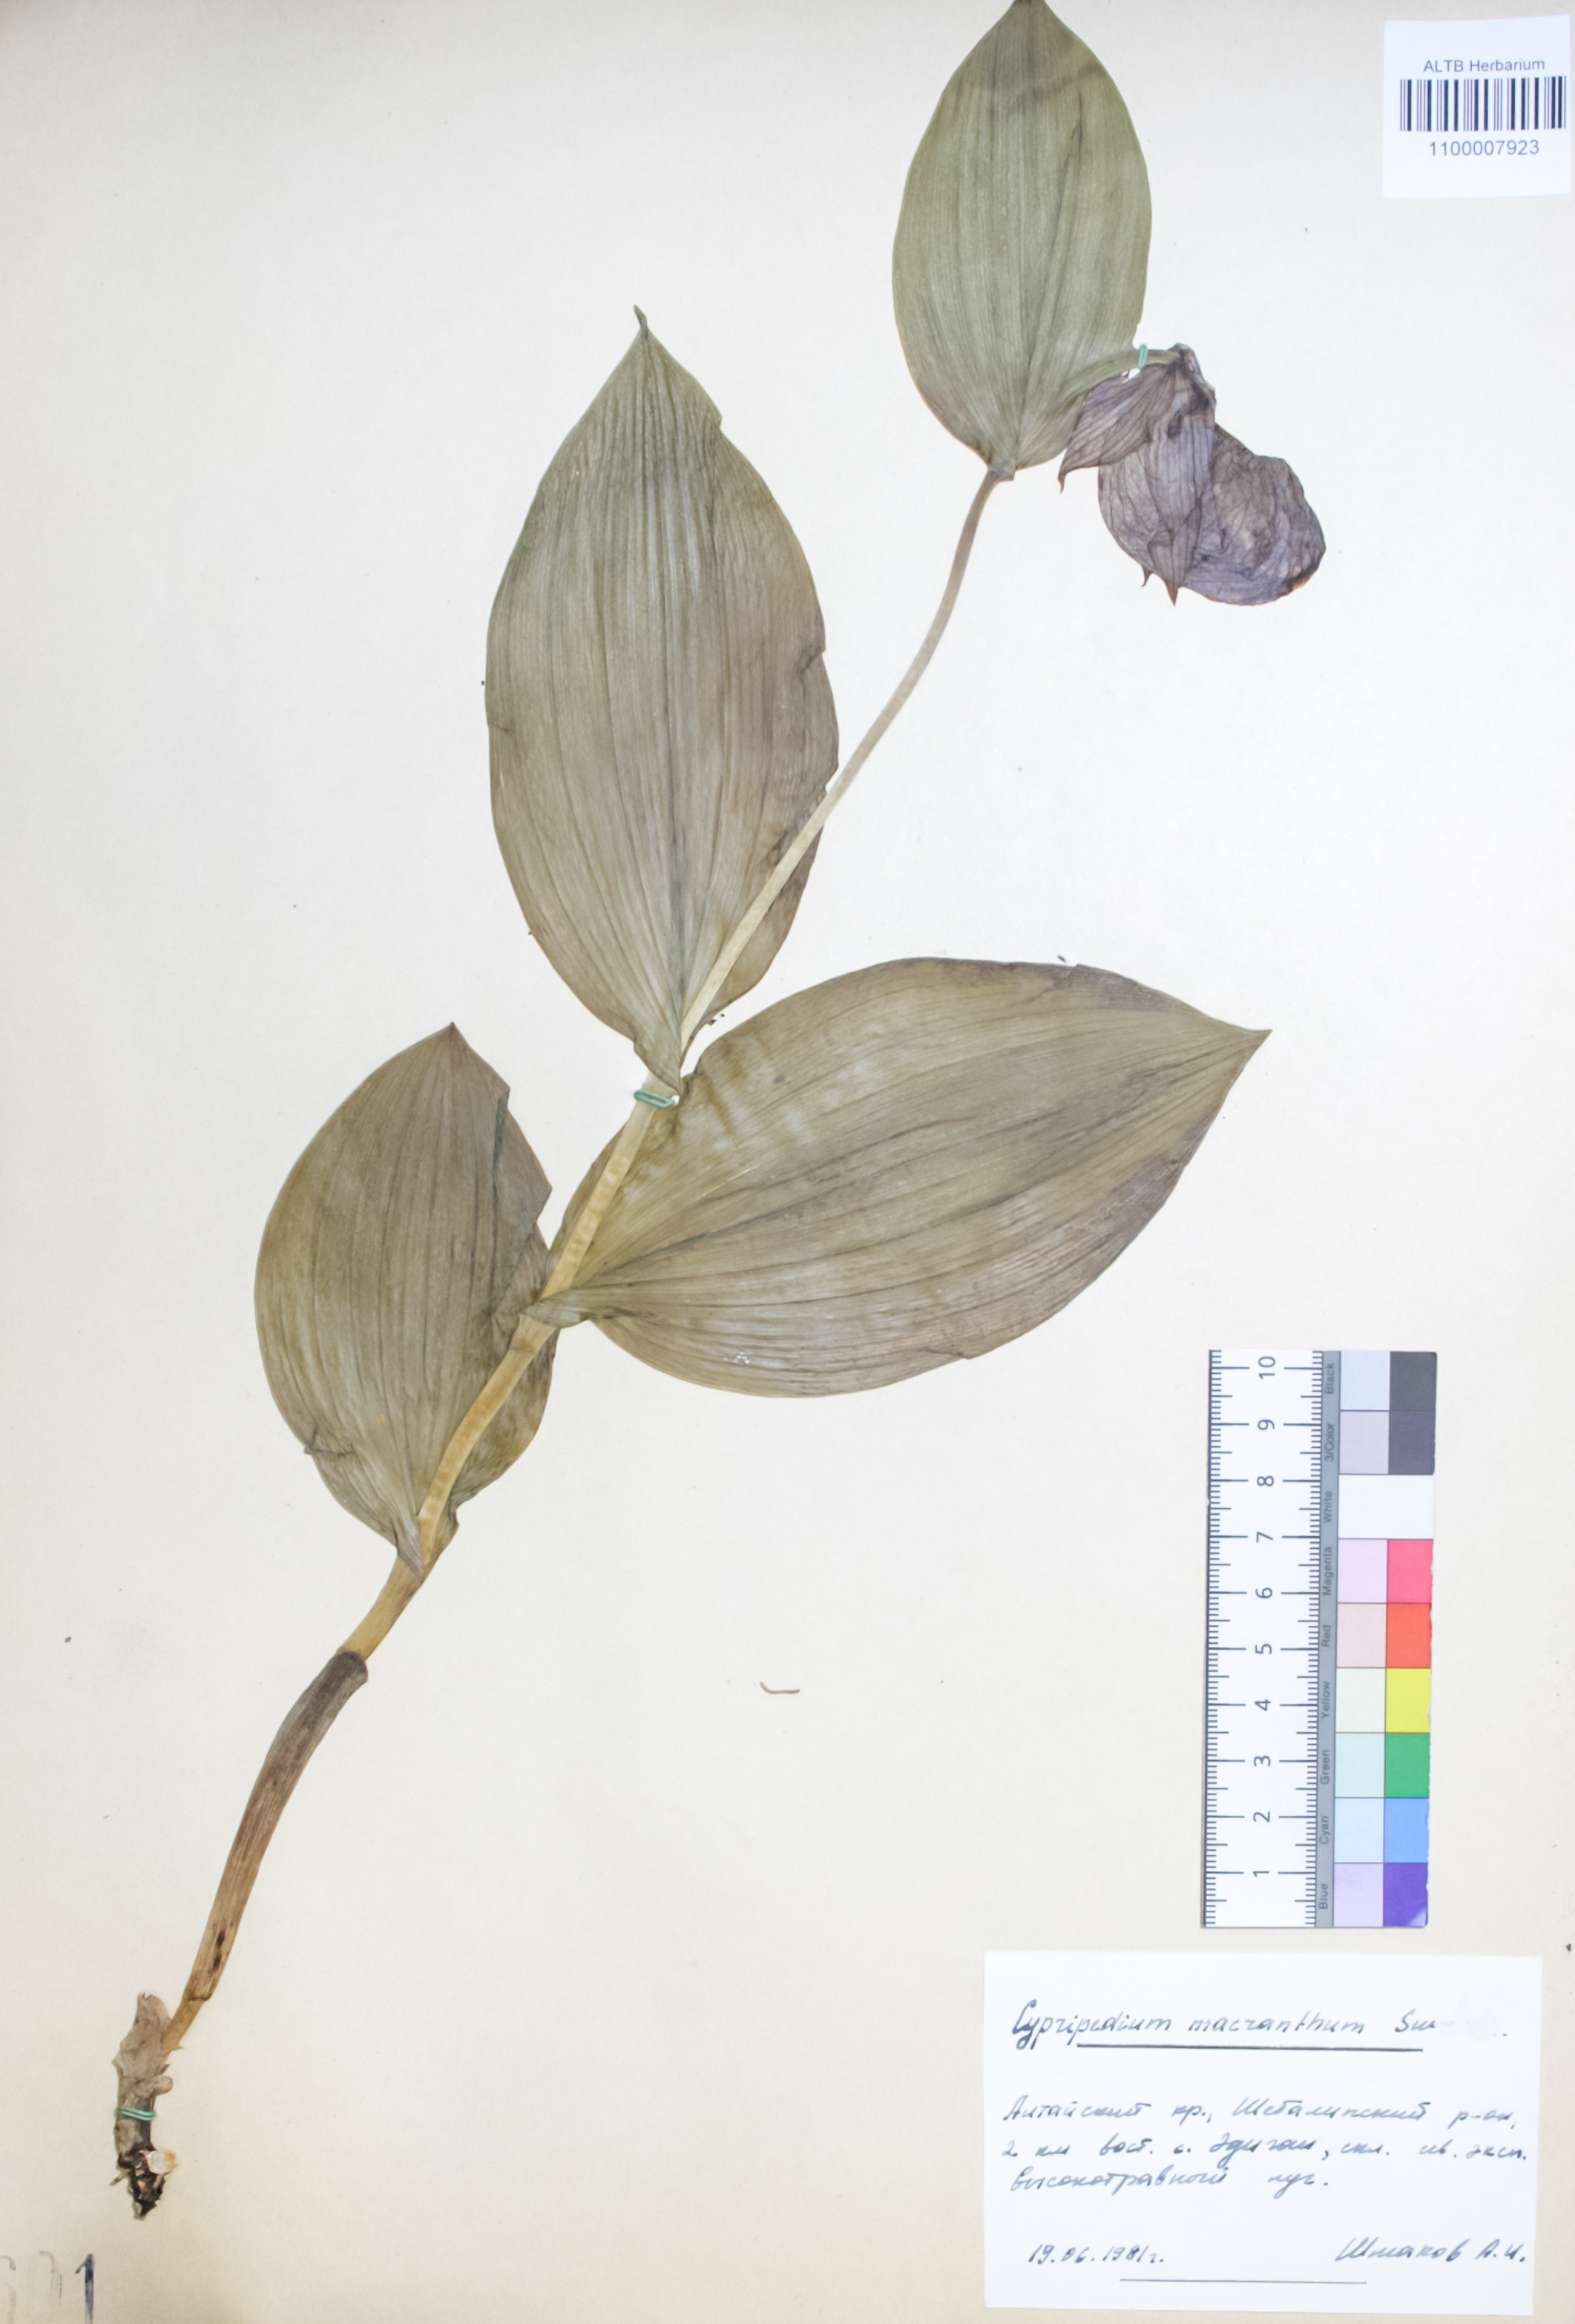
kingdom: Plantae
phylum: Tracheophyta
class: Liliopsida
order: Asparagales
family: Orchidaceae
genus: Cypripedium
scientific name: Cypripedium macranthon
